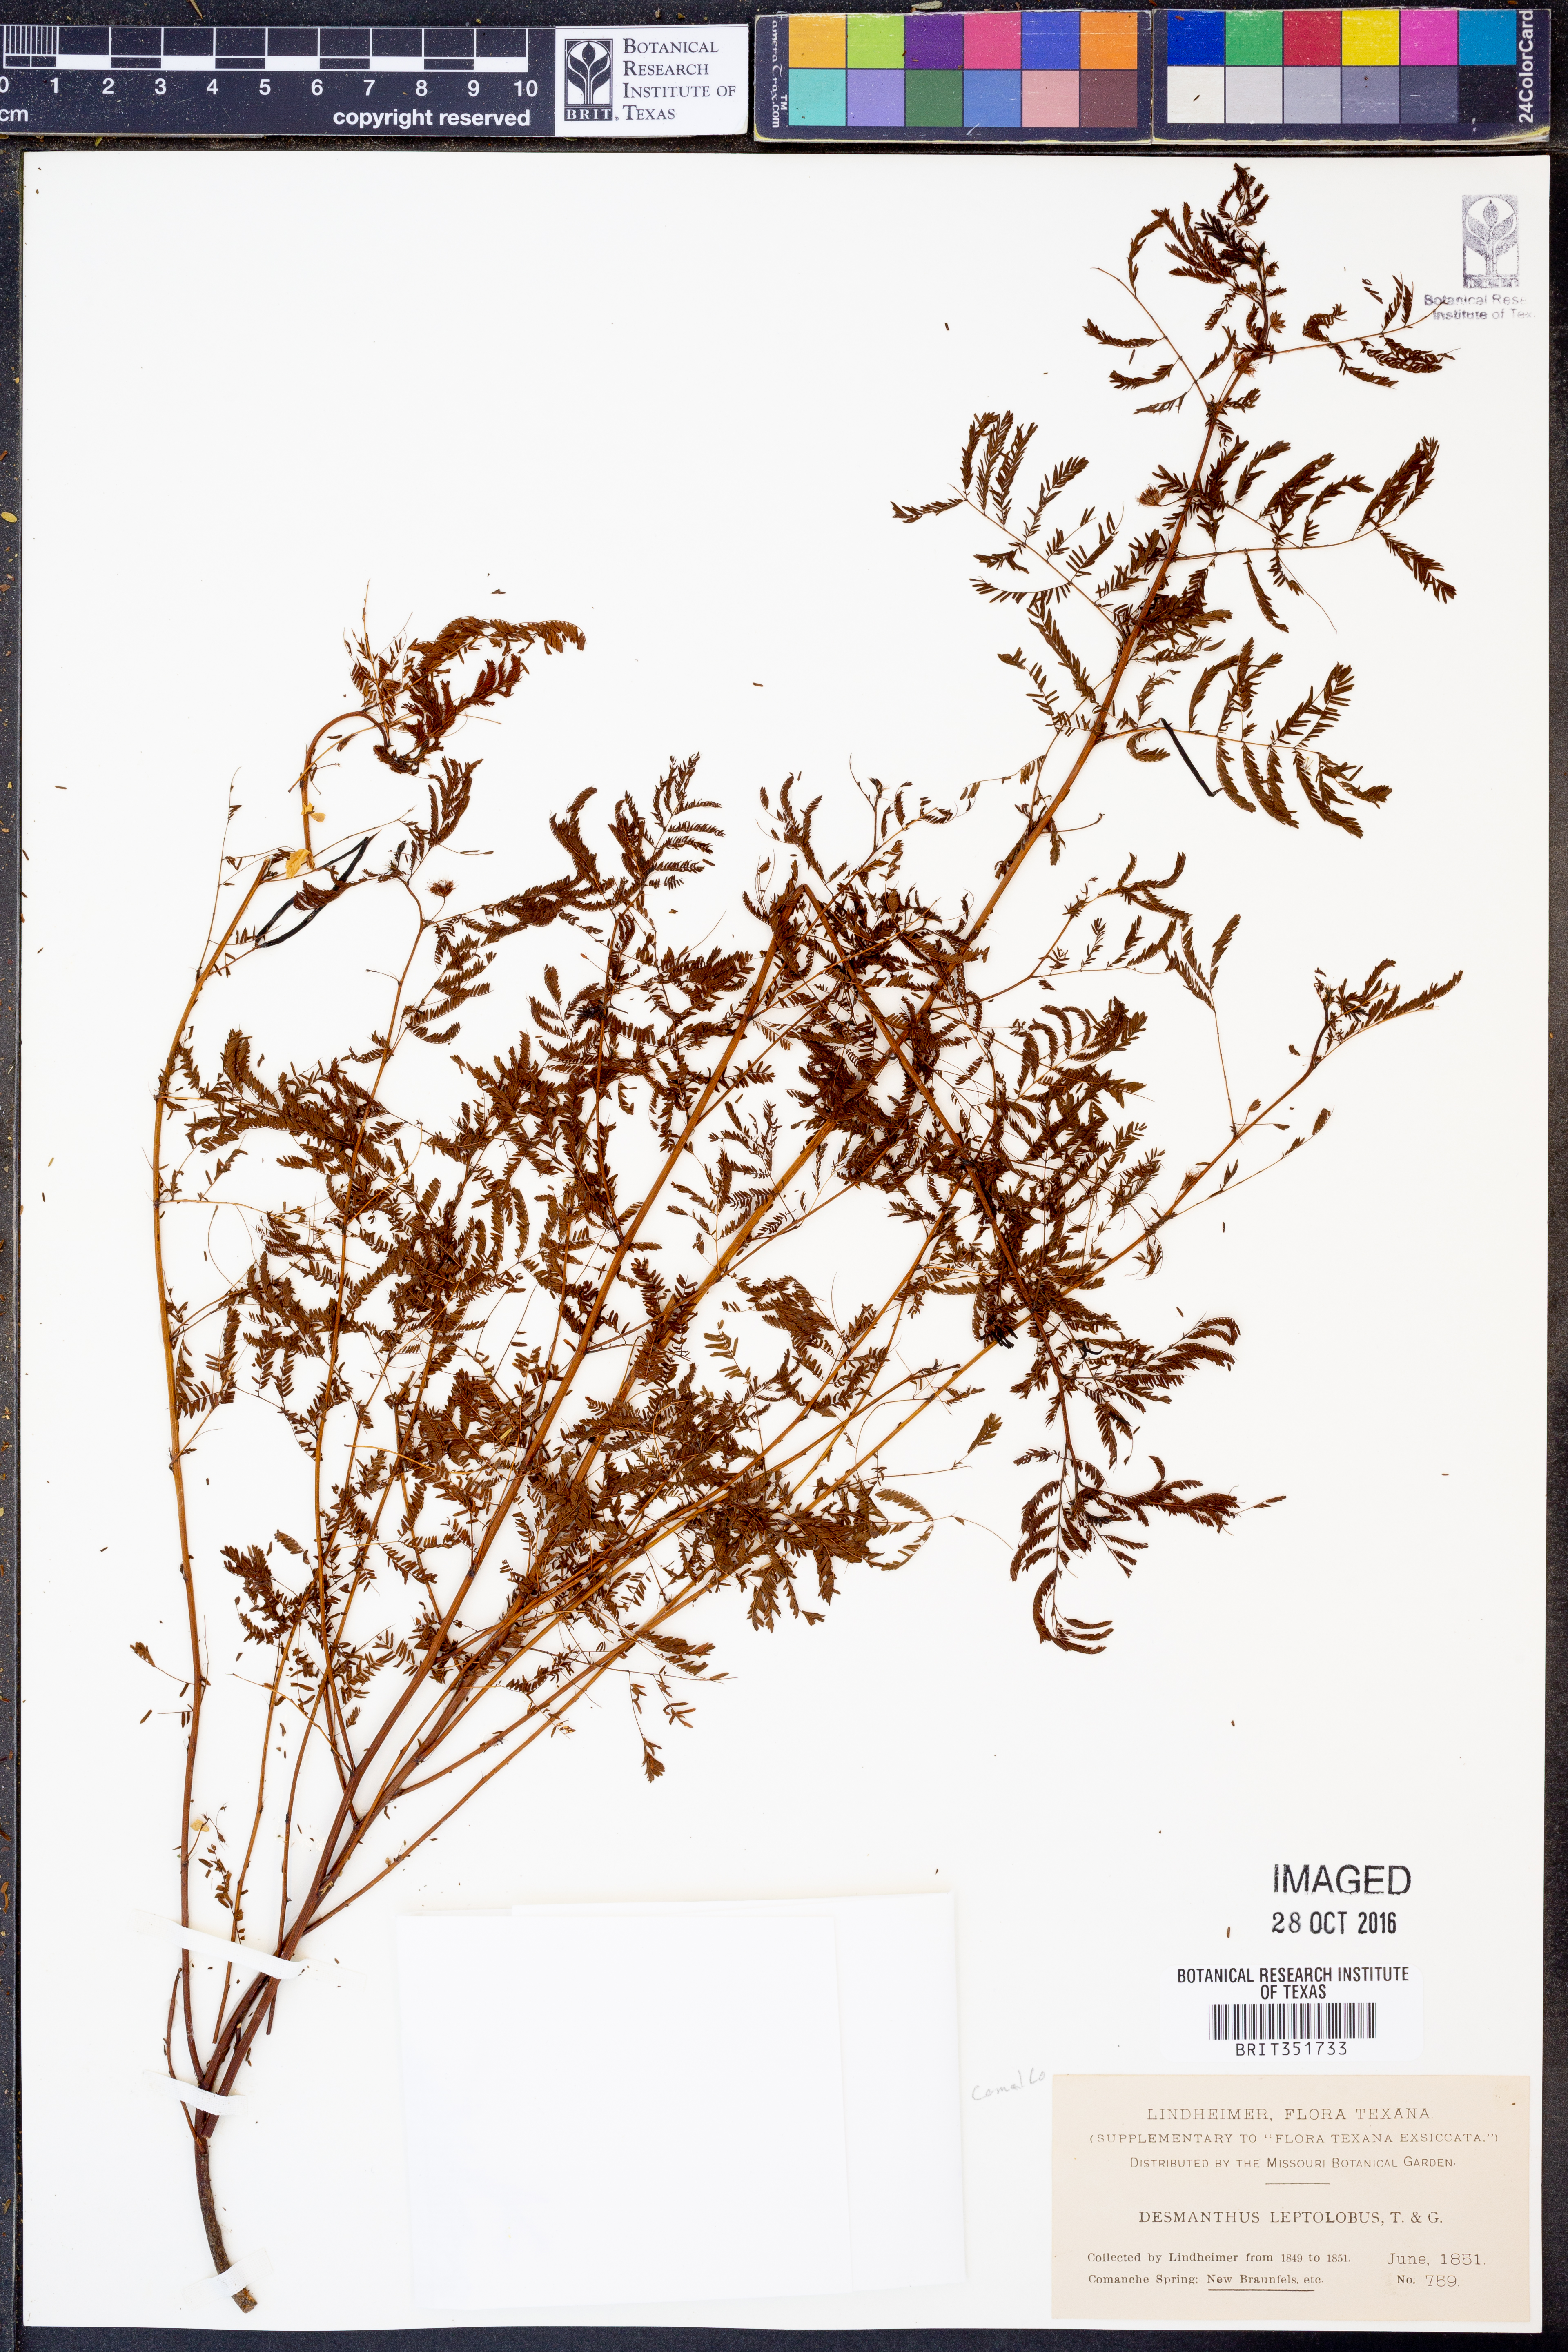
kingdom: Plantae
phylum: Tracheophyta
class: Magnoliopsida
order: Fabales
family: Fabaceae
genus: Desmanthus
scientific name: Desmanthus leptolobus
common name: Prairie-mimosa
